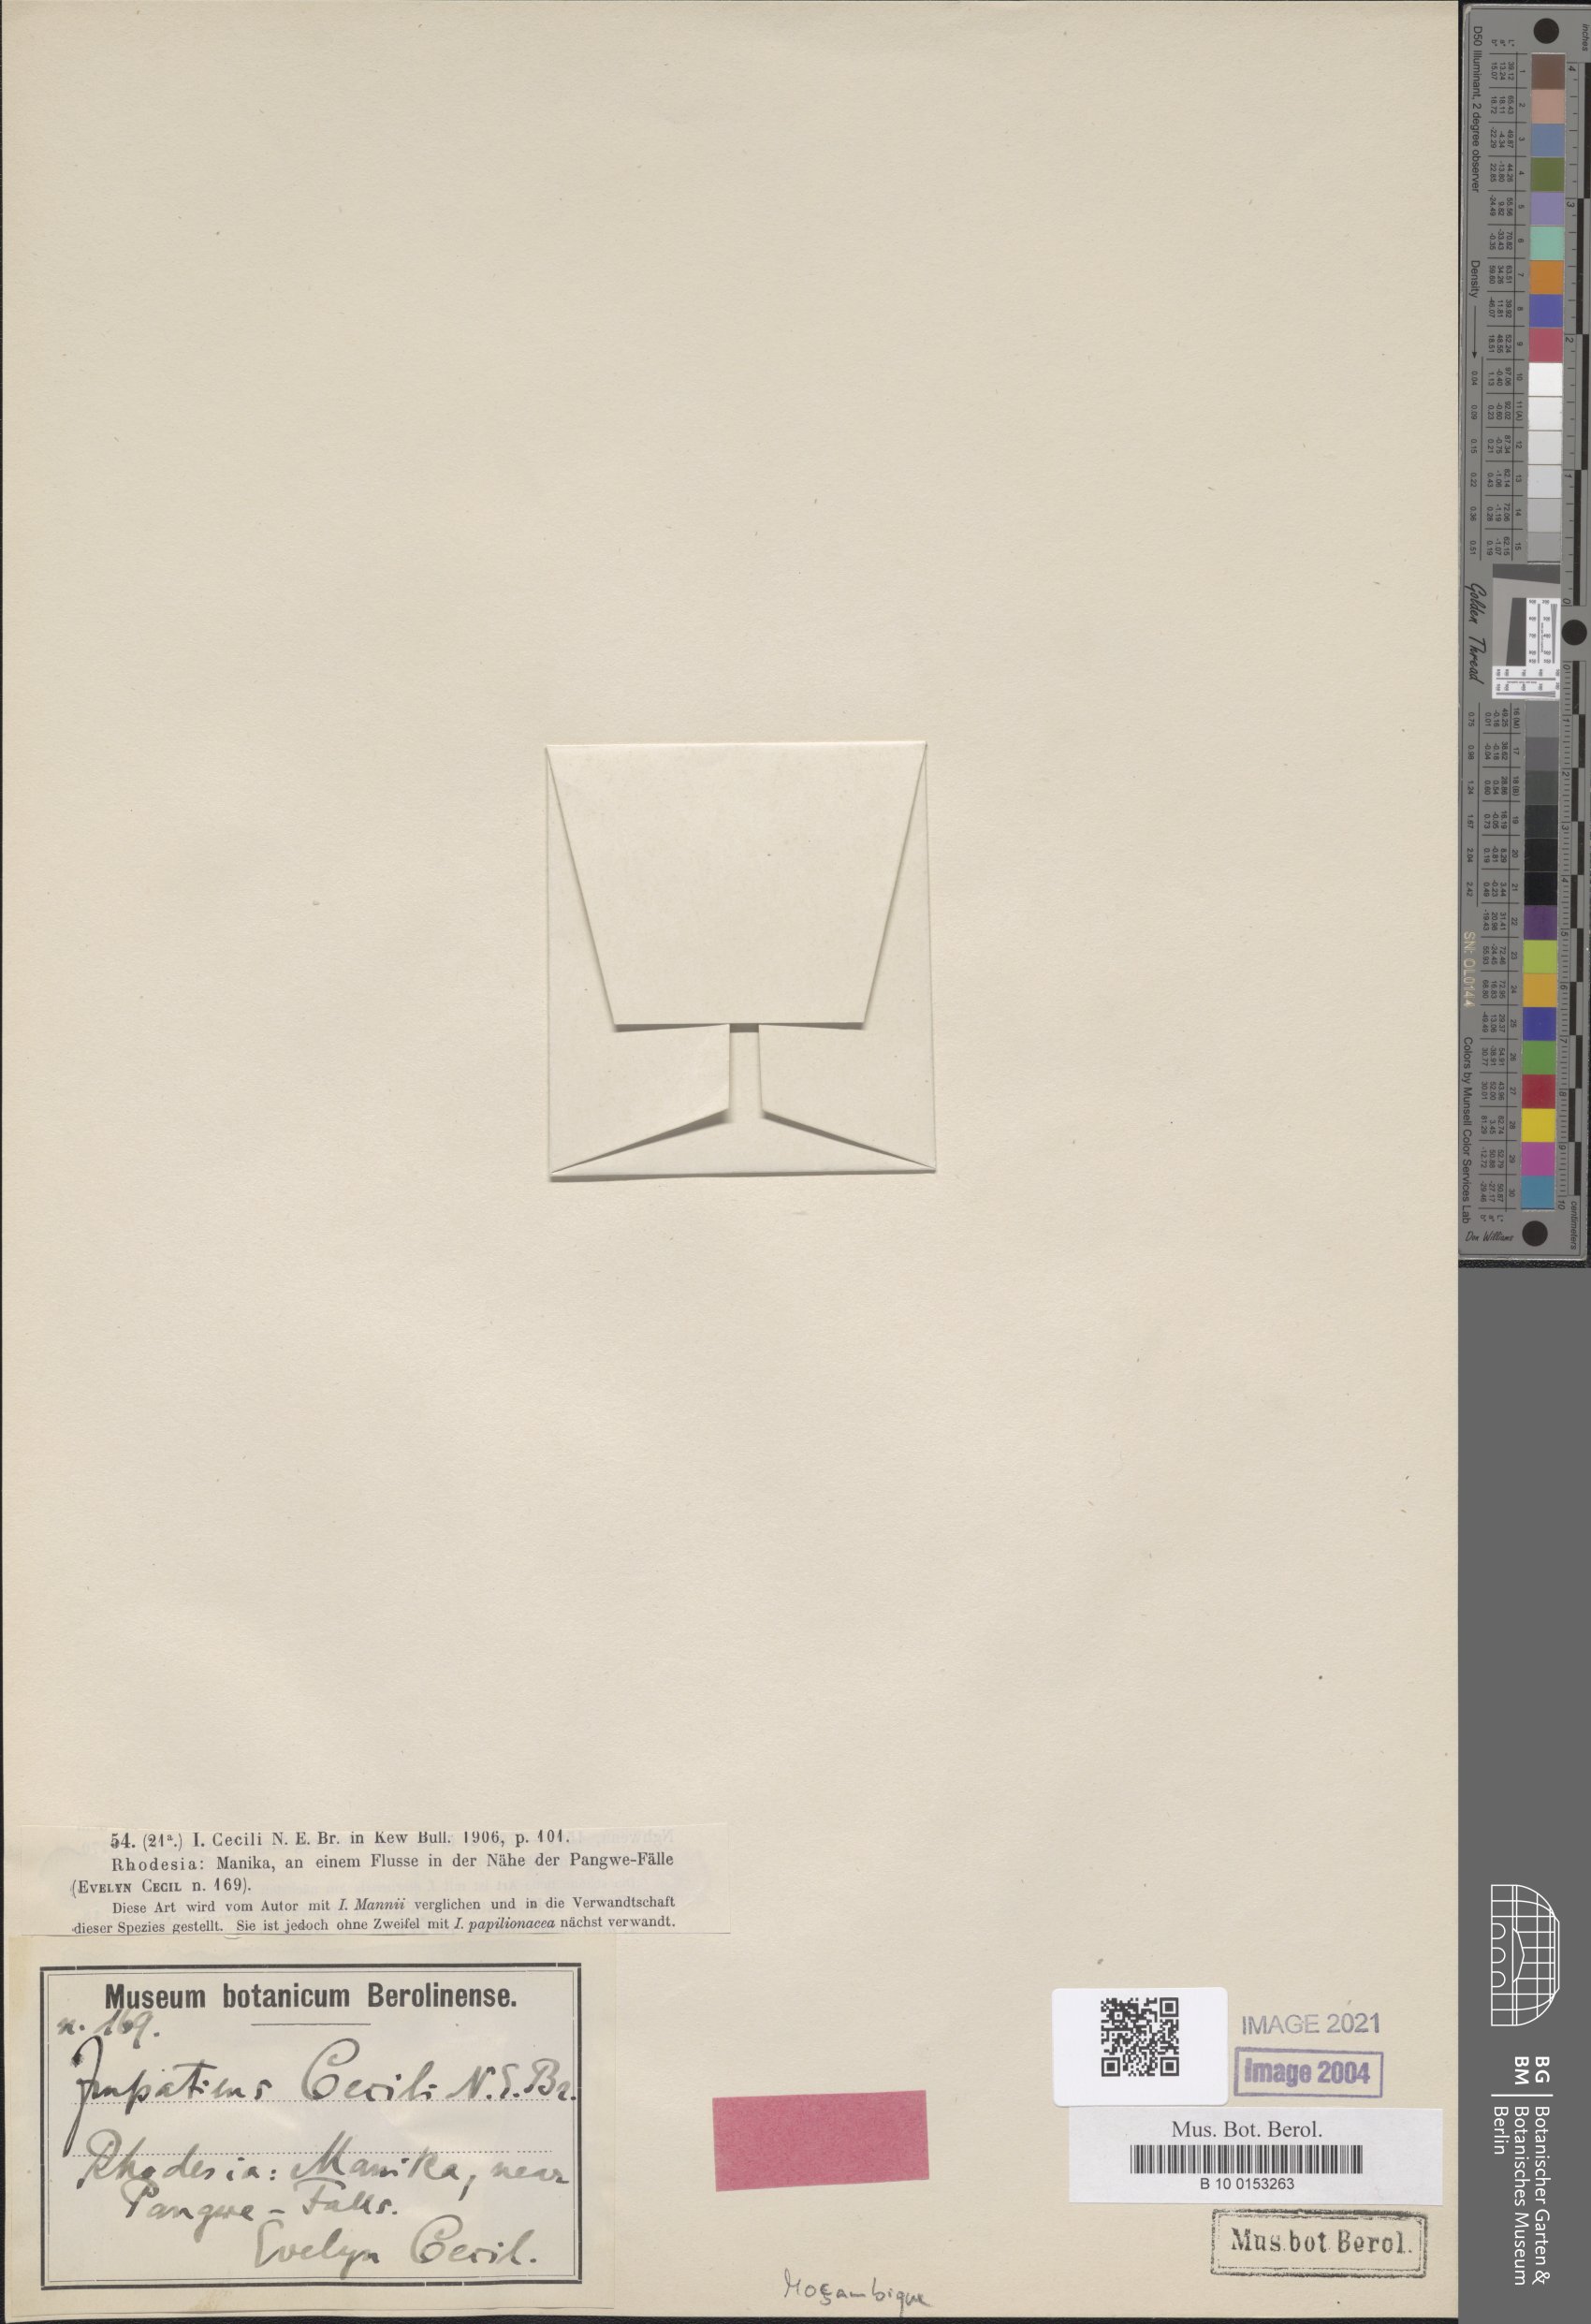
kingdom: Plantae
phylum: Tracheophyta
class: Magnoliopsida
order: Ericales
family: Balsaminaceae
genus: Impatiens
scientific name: Impatiens cecilii
